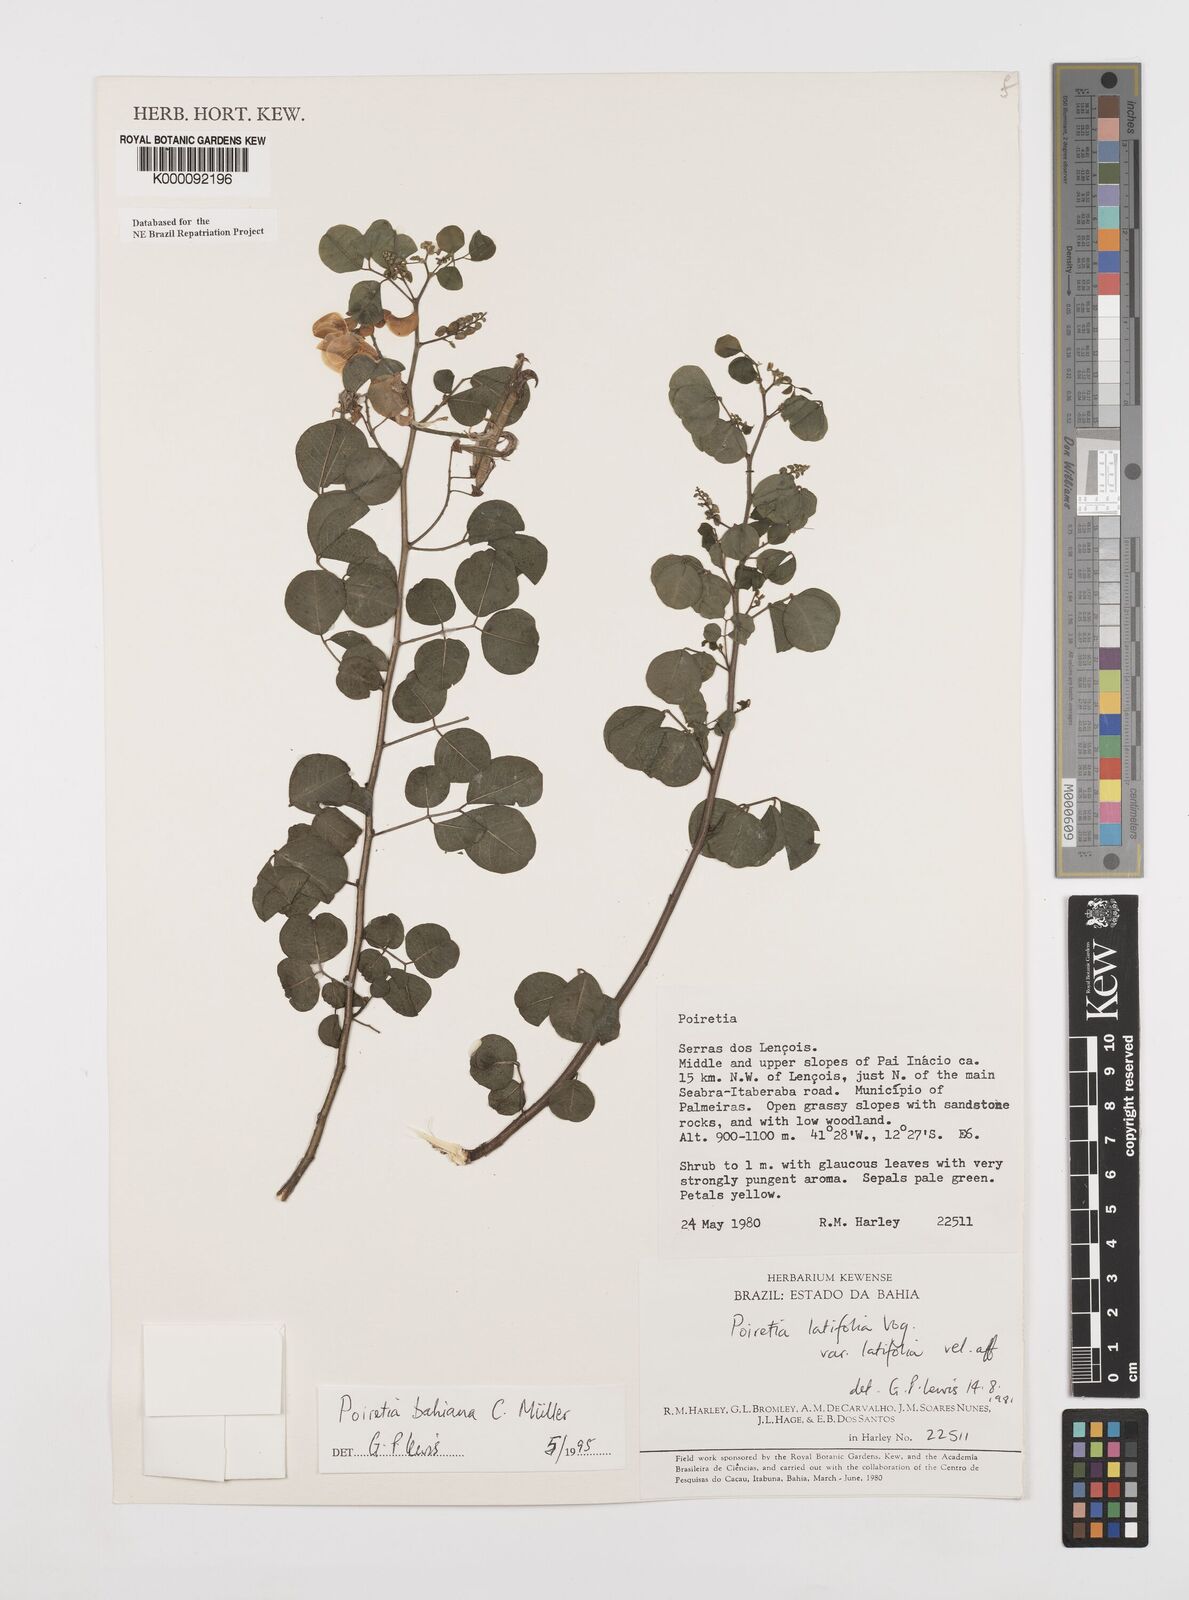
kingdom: Plantae
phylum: Tracheophyta
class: Magnoliopsida
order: Fabales
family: Fabaceae
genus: Poiretia
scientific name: Poiretia
